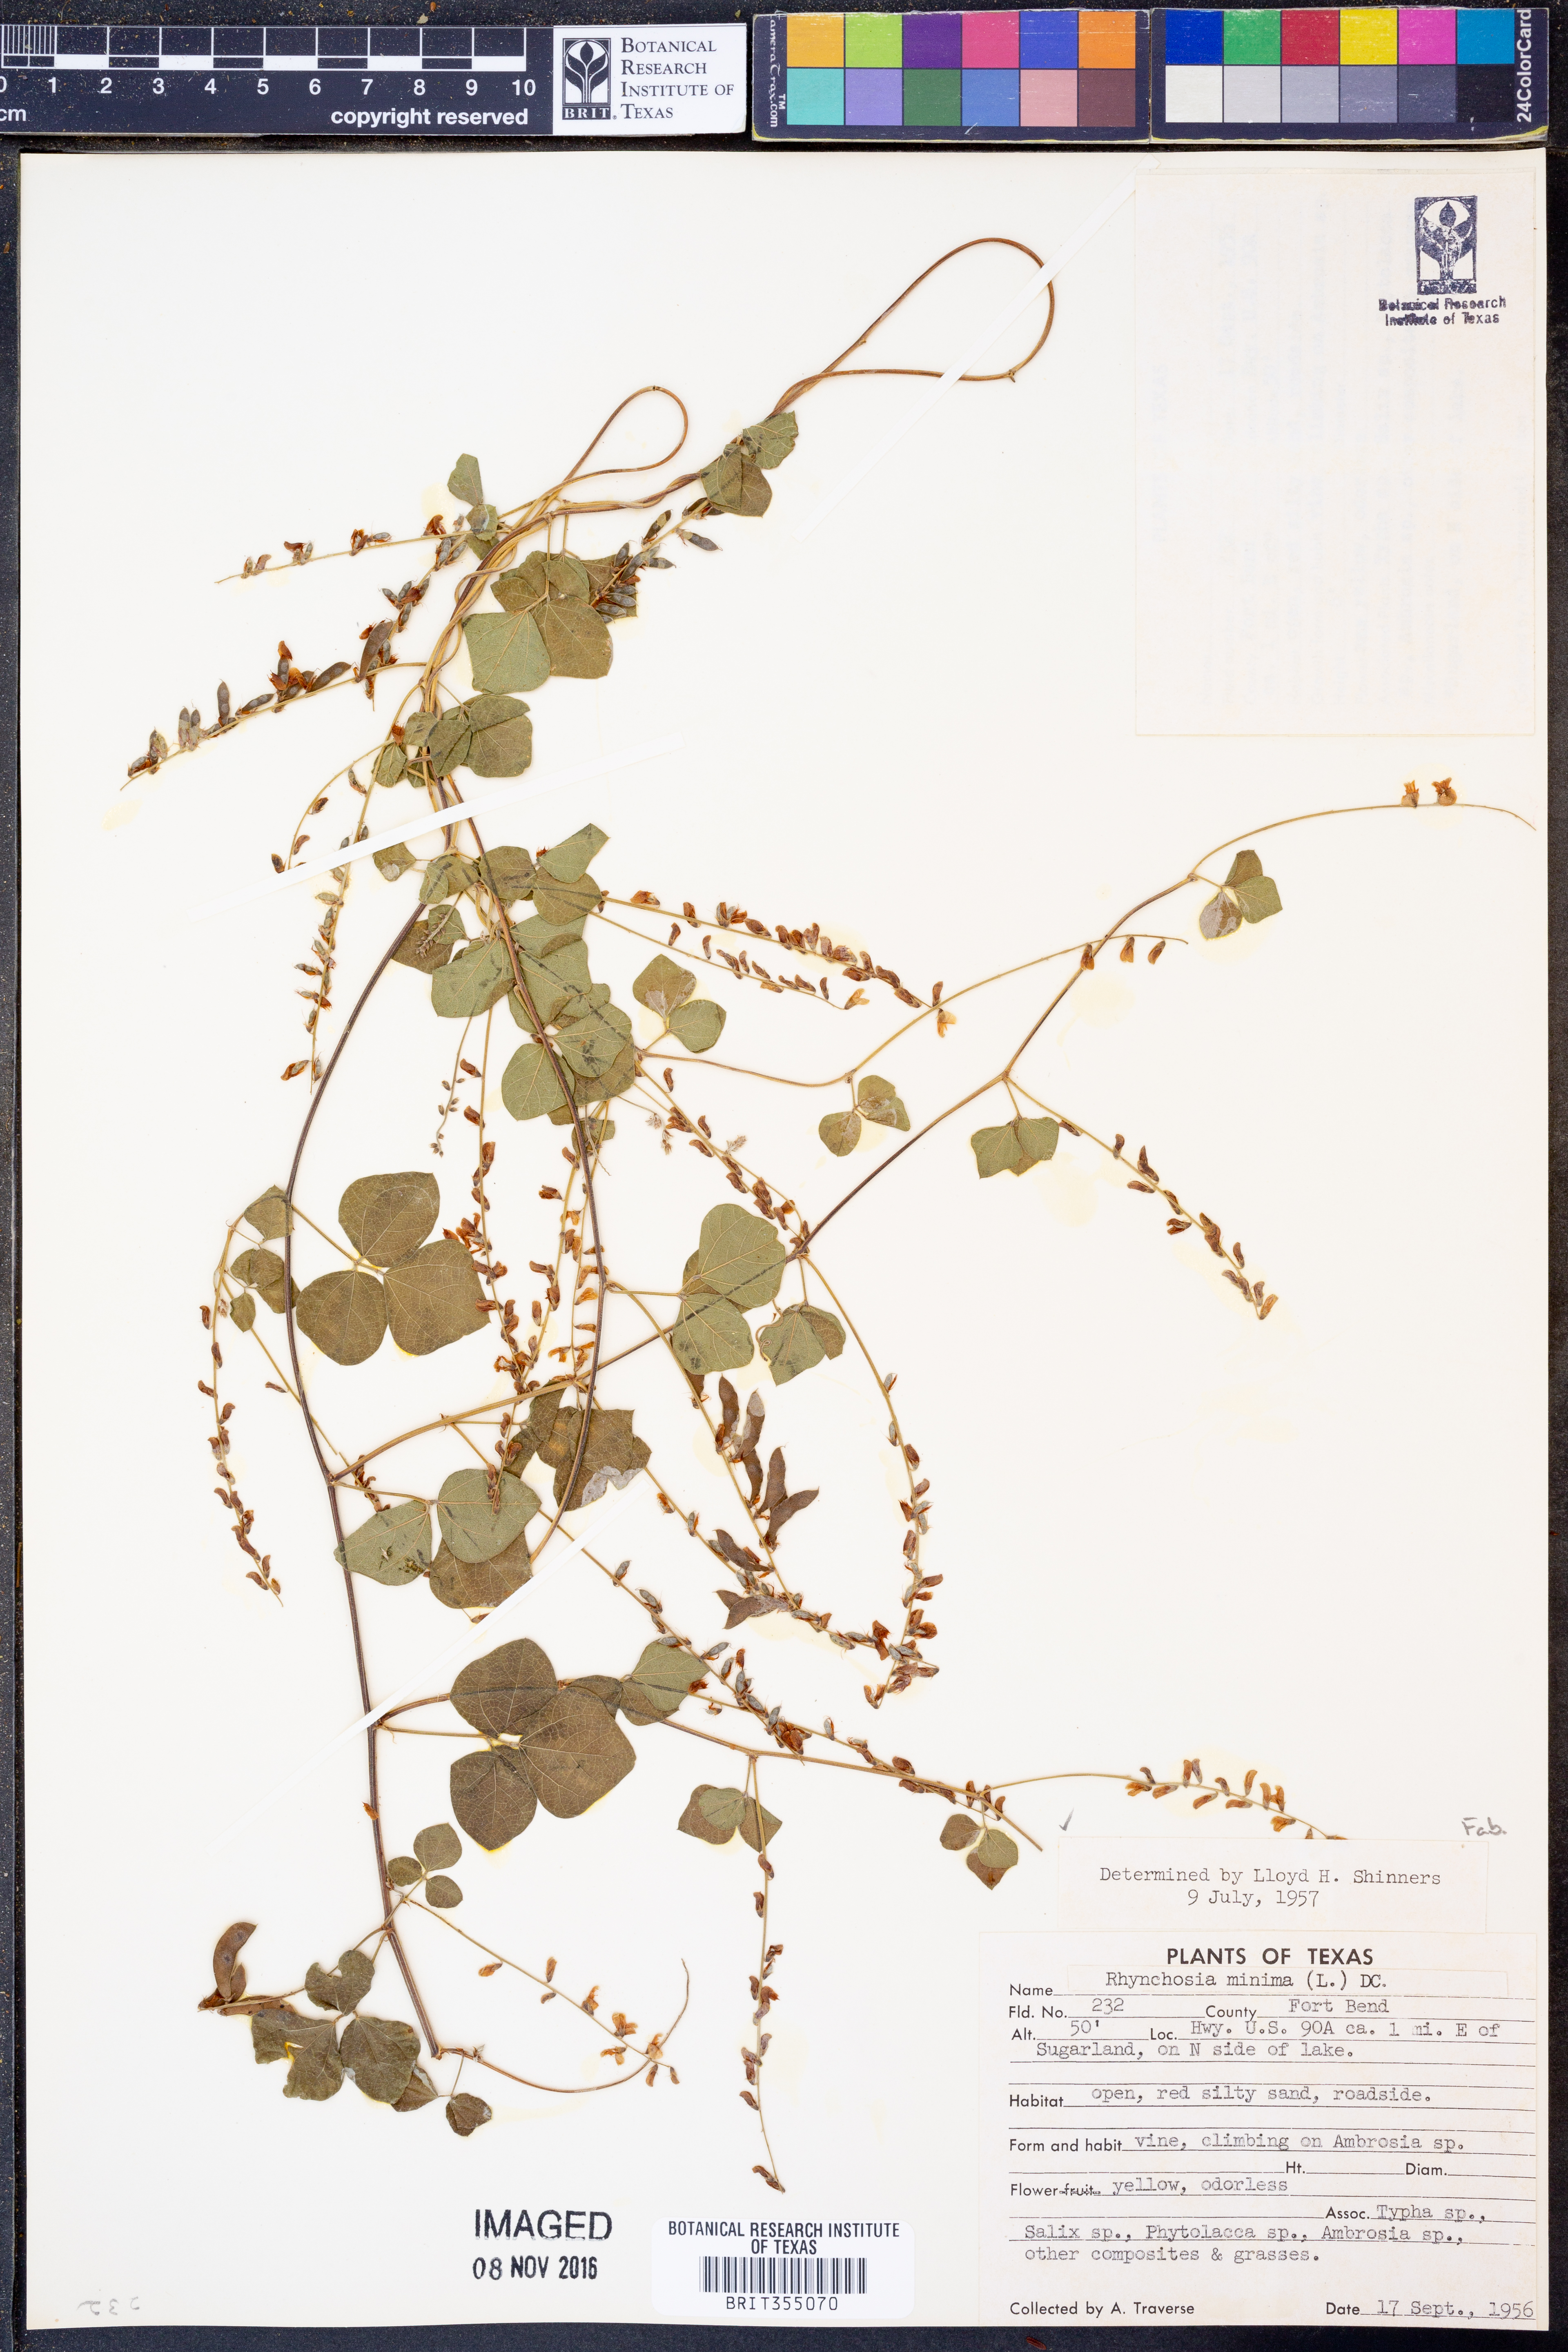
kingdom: Plantae
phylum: Tracheophyta
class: Magnoliopsida
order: Fabales
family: Fabaceae
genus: Rhynchosia
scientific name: Rhynchosia minima
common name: Least snoutbean
